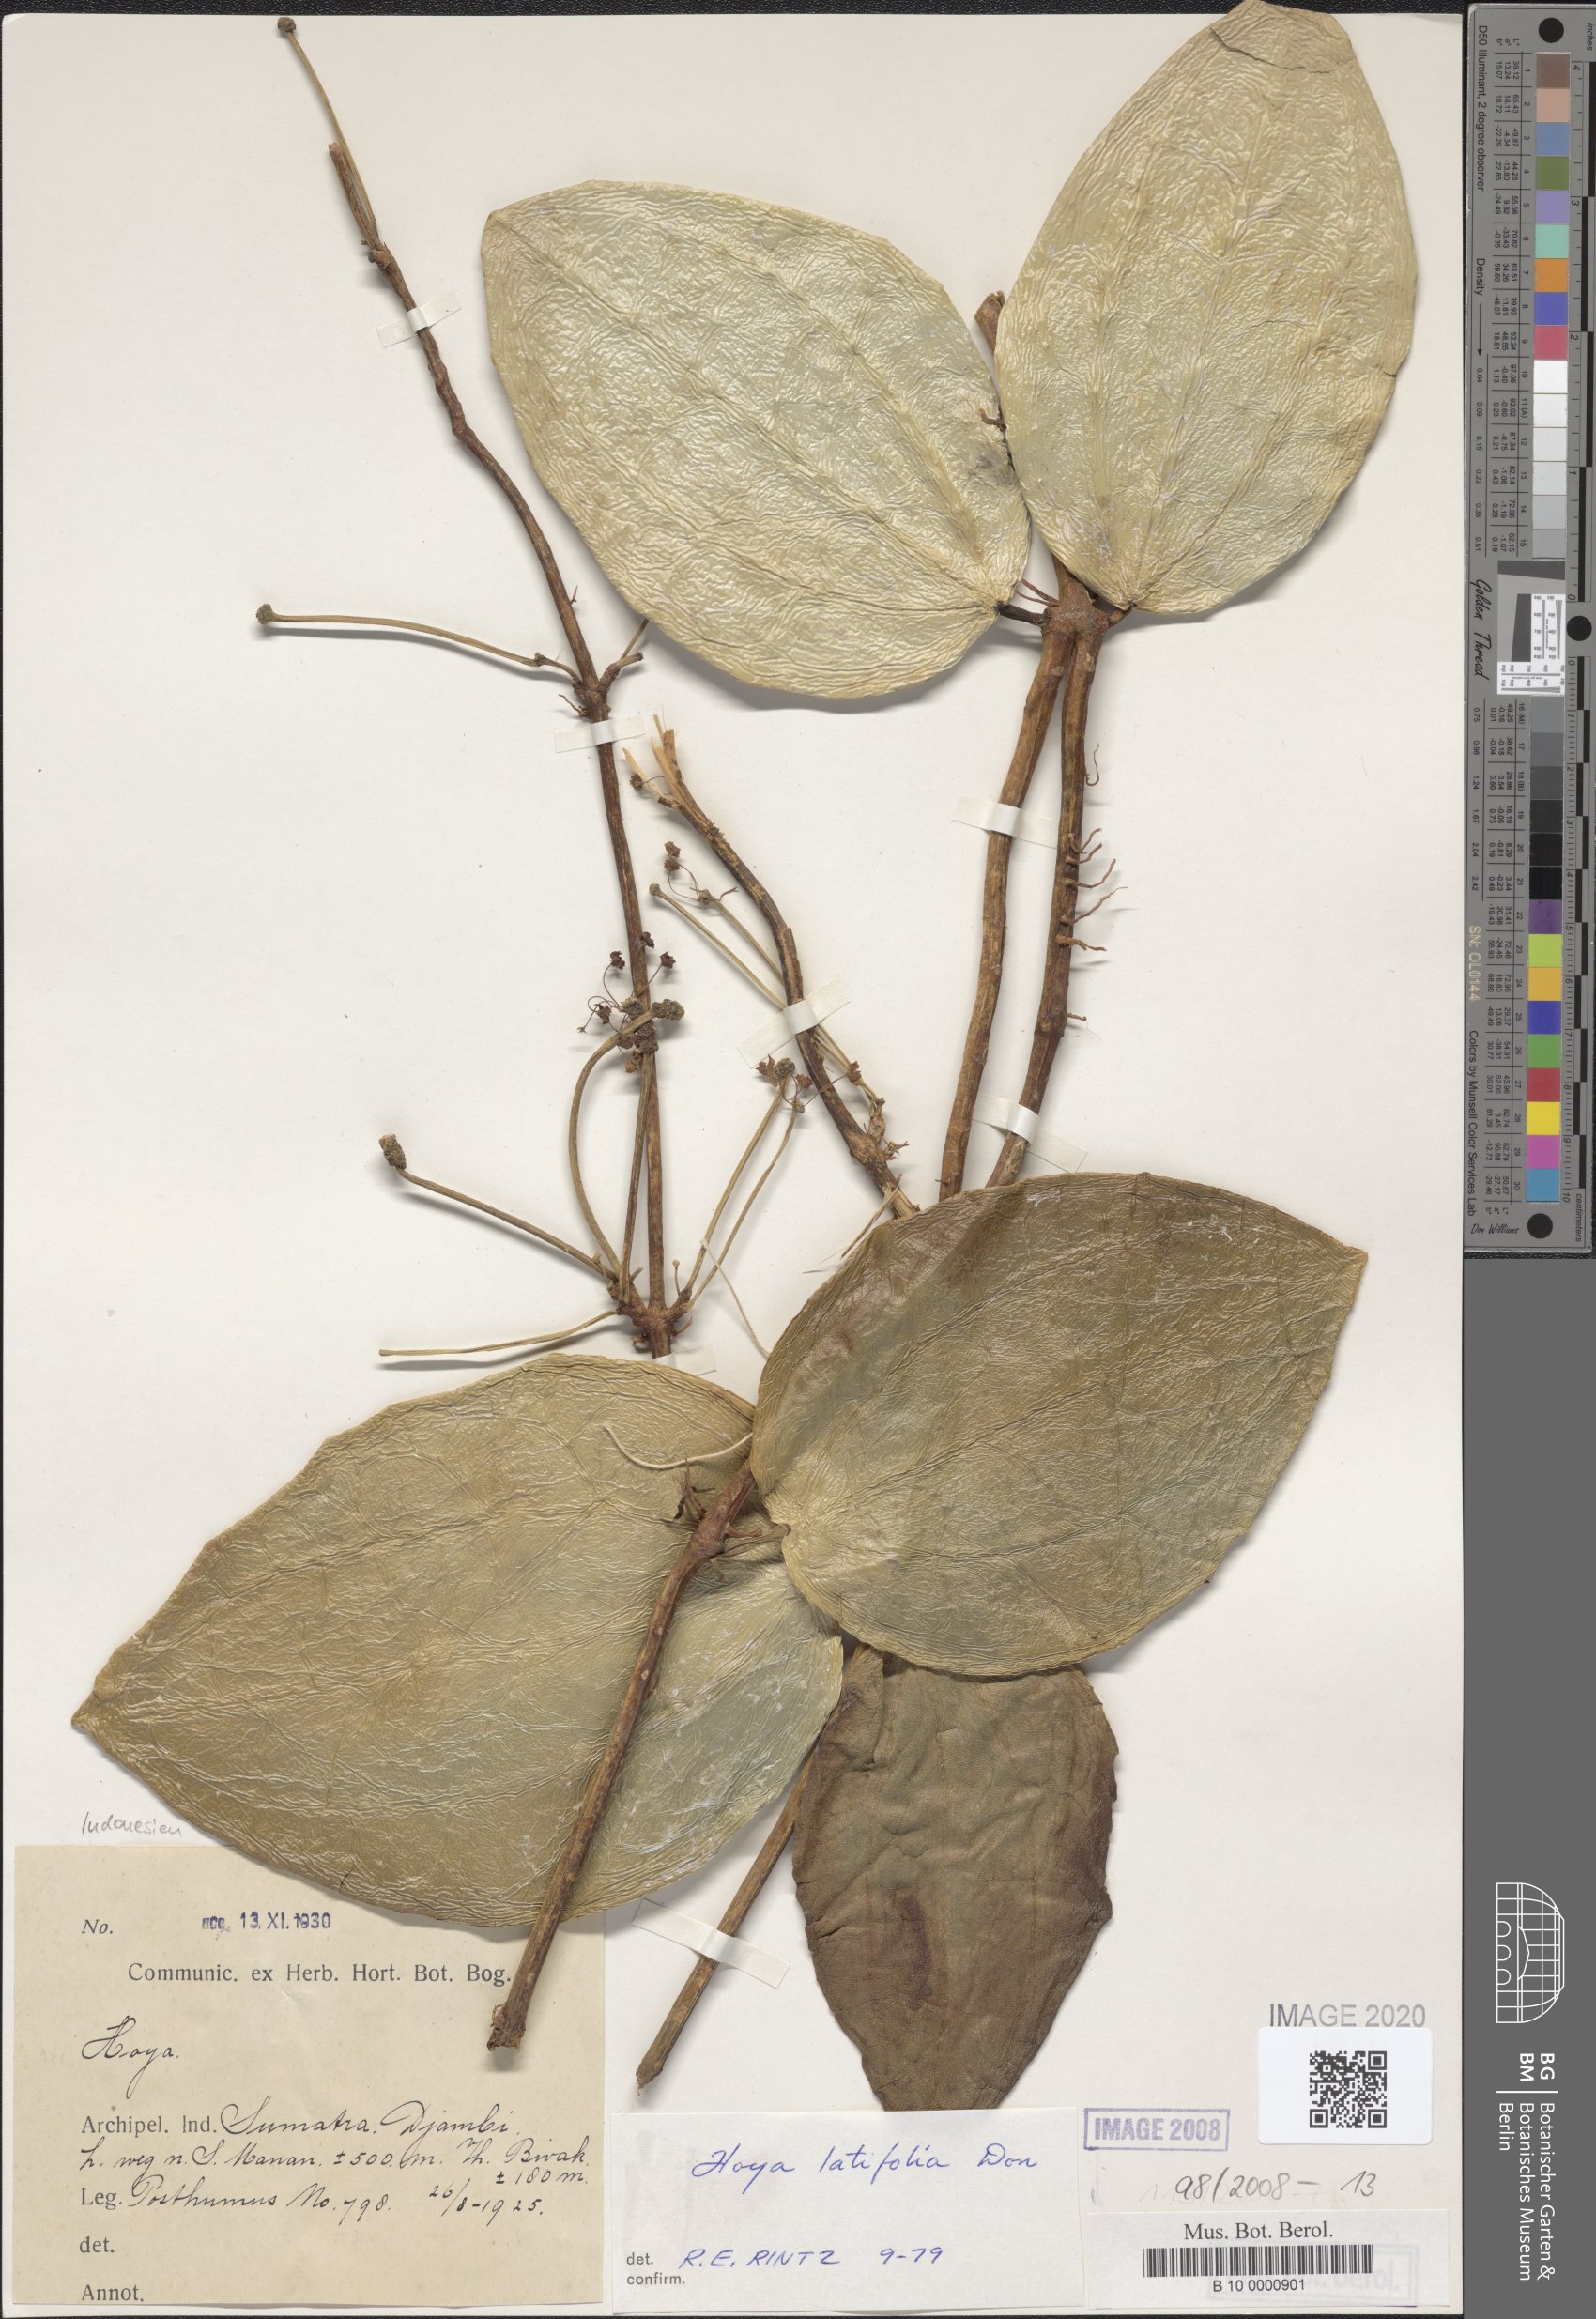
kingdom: Plantae
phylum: Tracheophyta
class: Magnoliopsida
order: Gentianales
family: Apocynaceae
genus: Hoya
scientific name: Hoya latifolia
